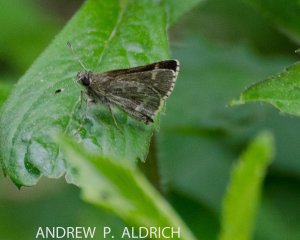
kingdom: Animalia
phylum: Arthropoda
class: Insecta
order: Lepidoptera
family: Hesperiidae
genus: Mastor
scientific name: Mastor hegon
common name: Pepper and Salt Skipper
